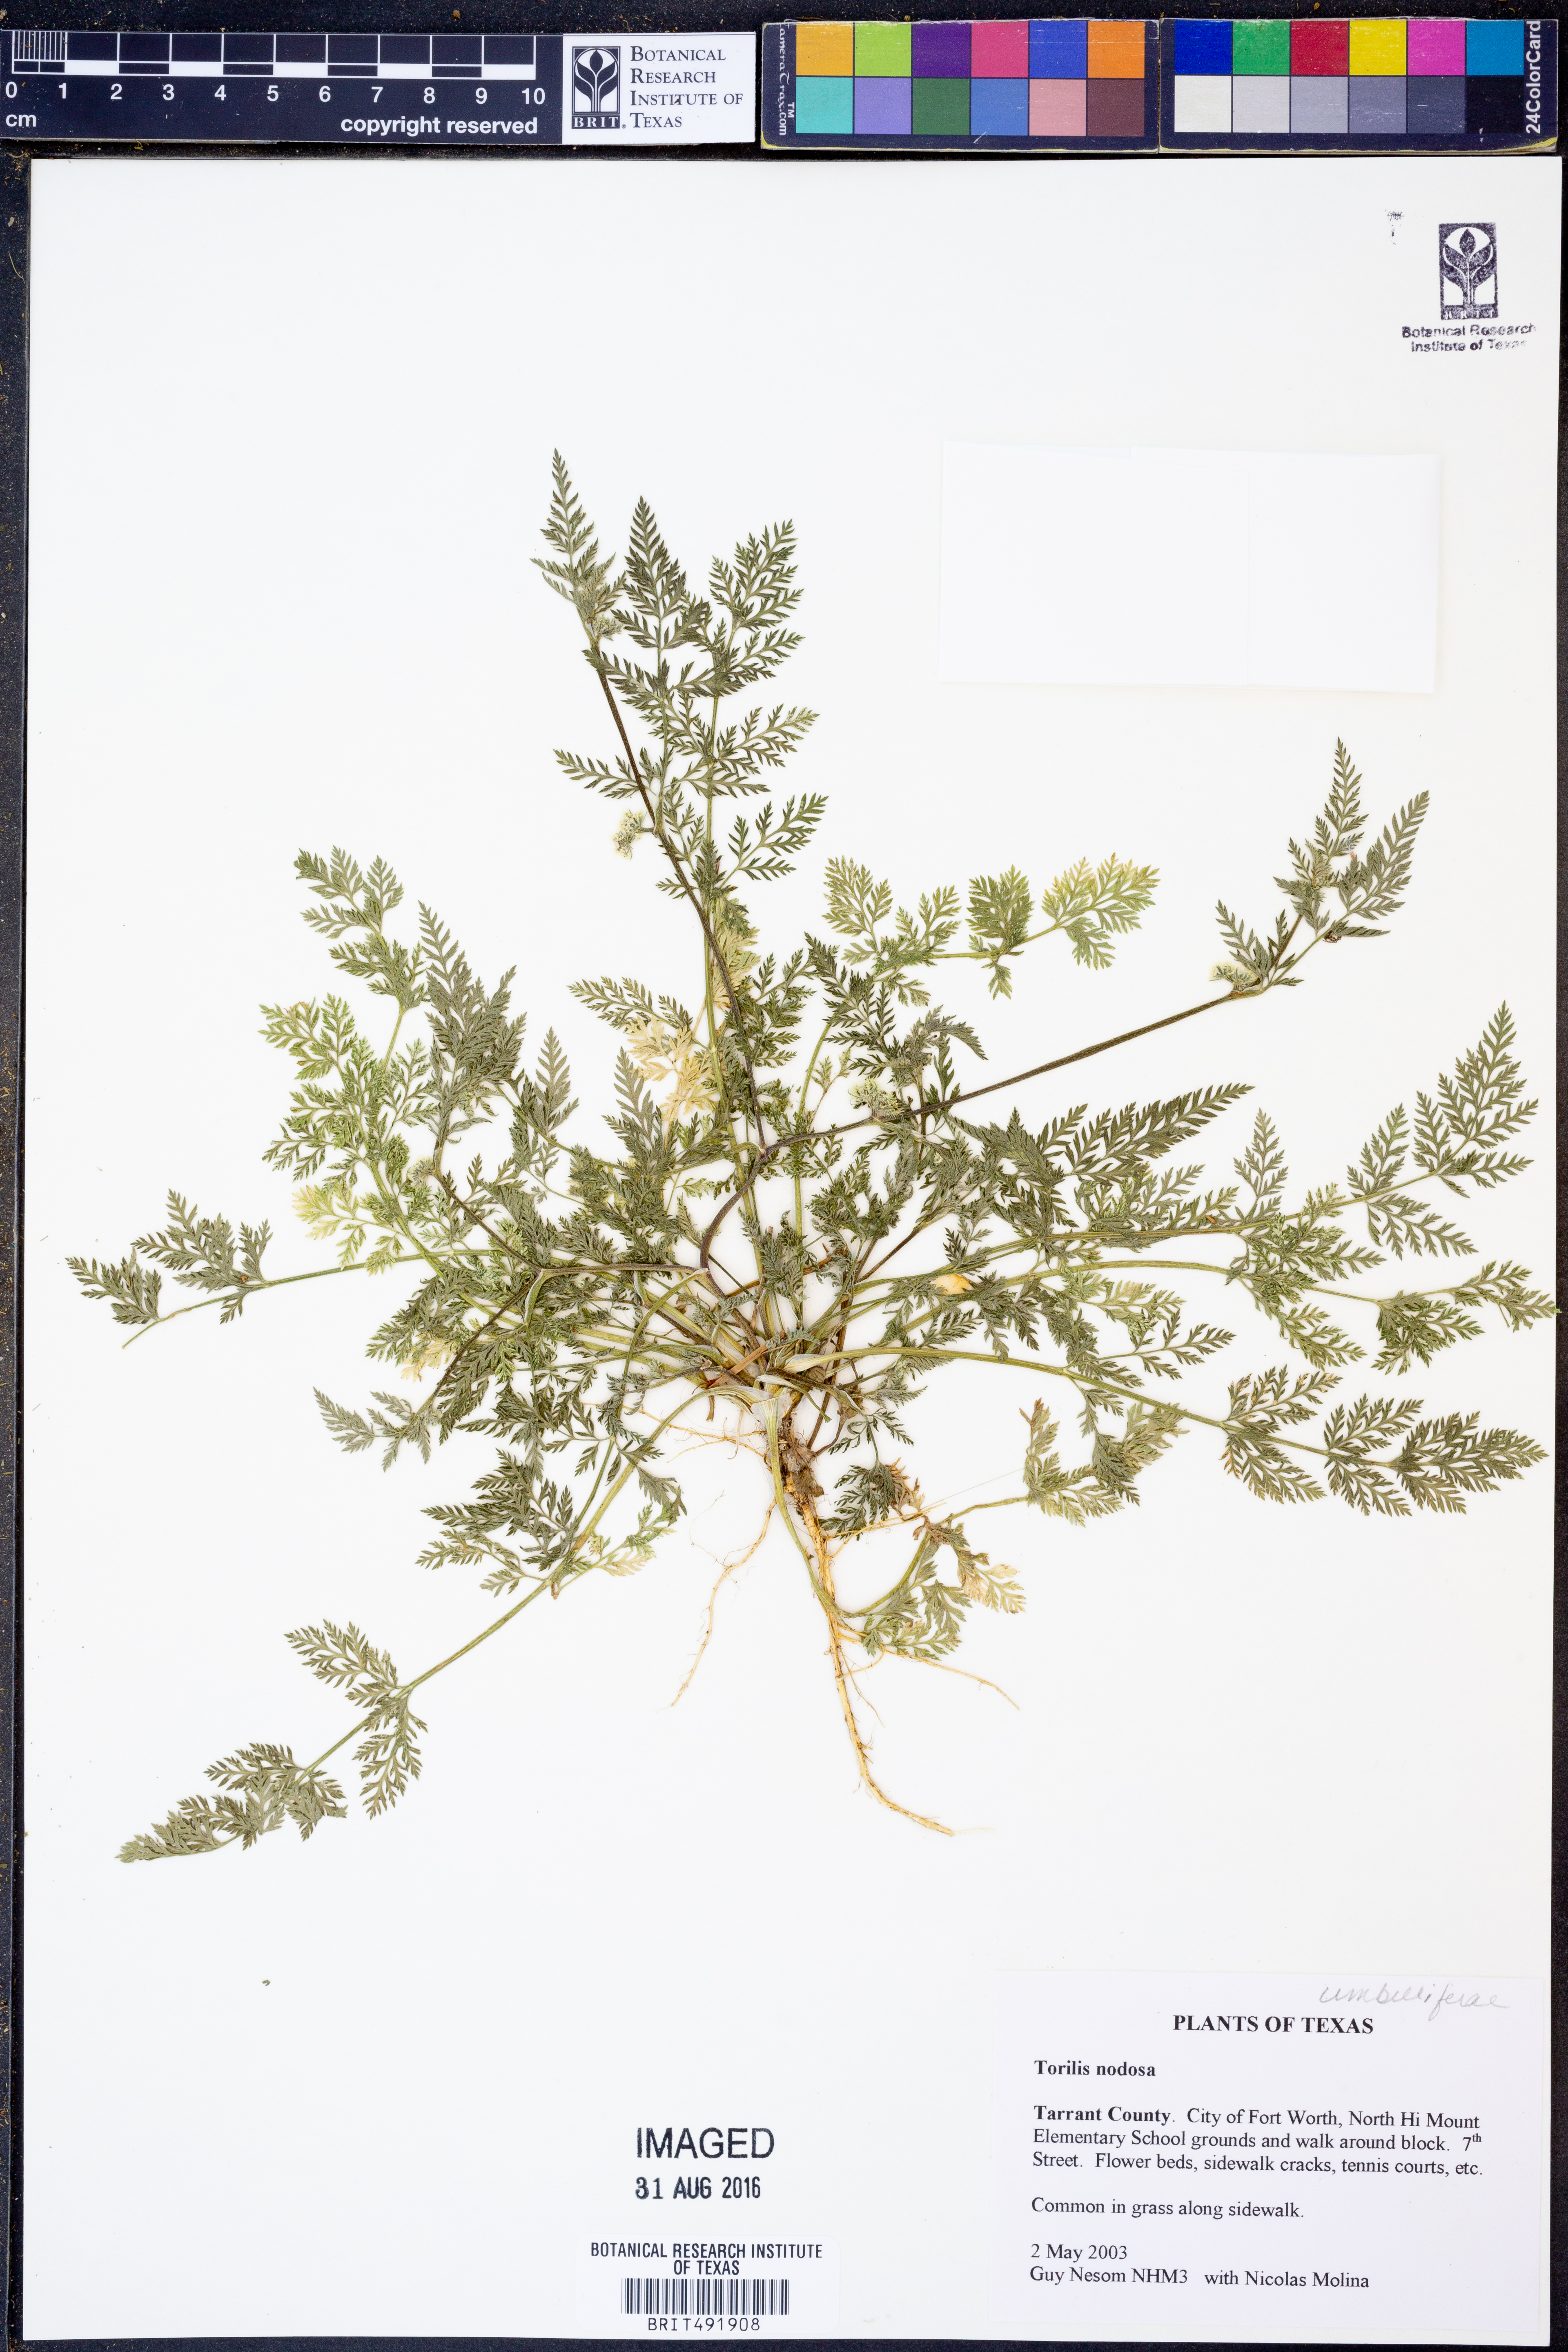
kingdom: Plantae
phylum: Tracheophyta
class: Magnoliopsida
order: Apiales
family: Apiaceae
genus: Torilis
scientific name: Torilis nodosa
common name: Knotted hedge-parsley
